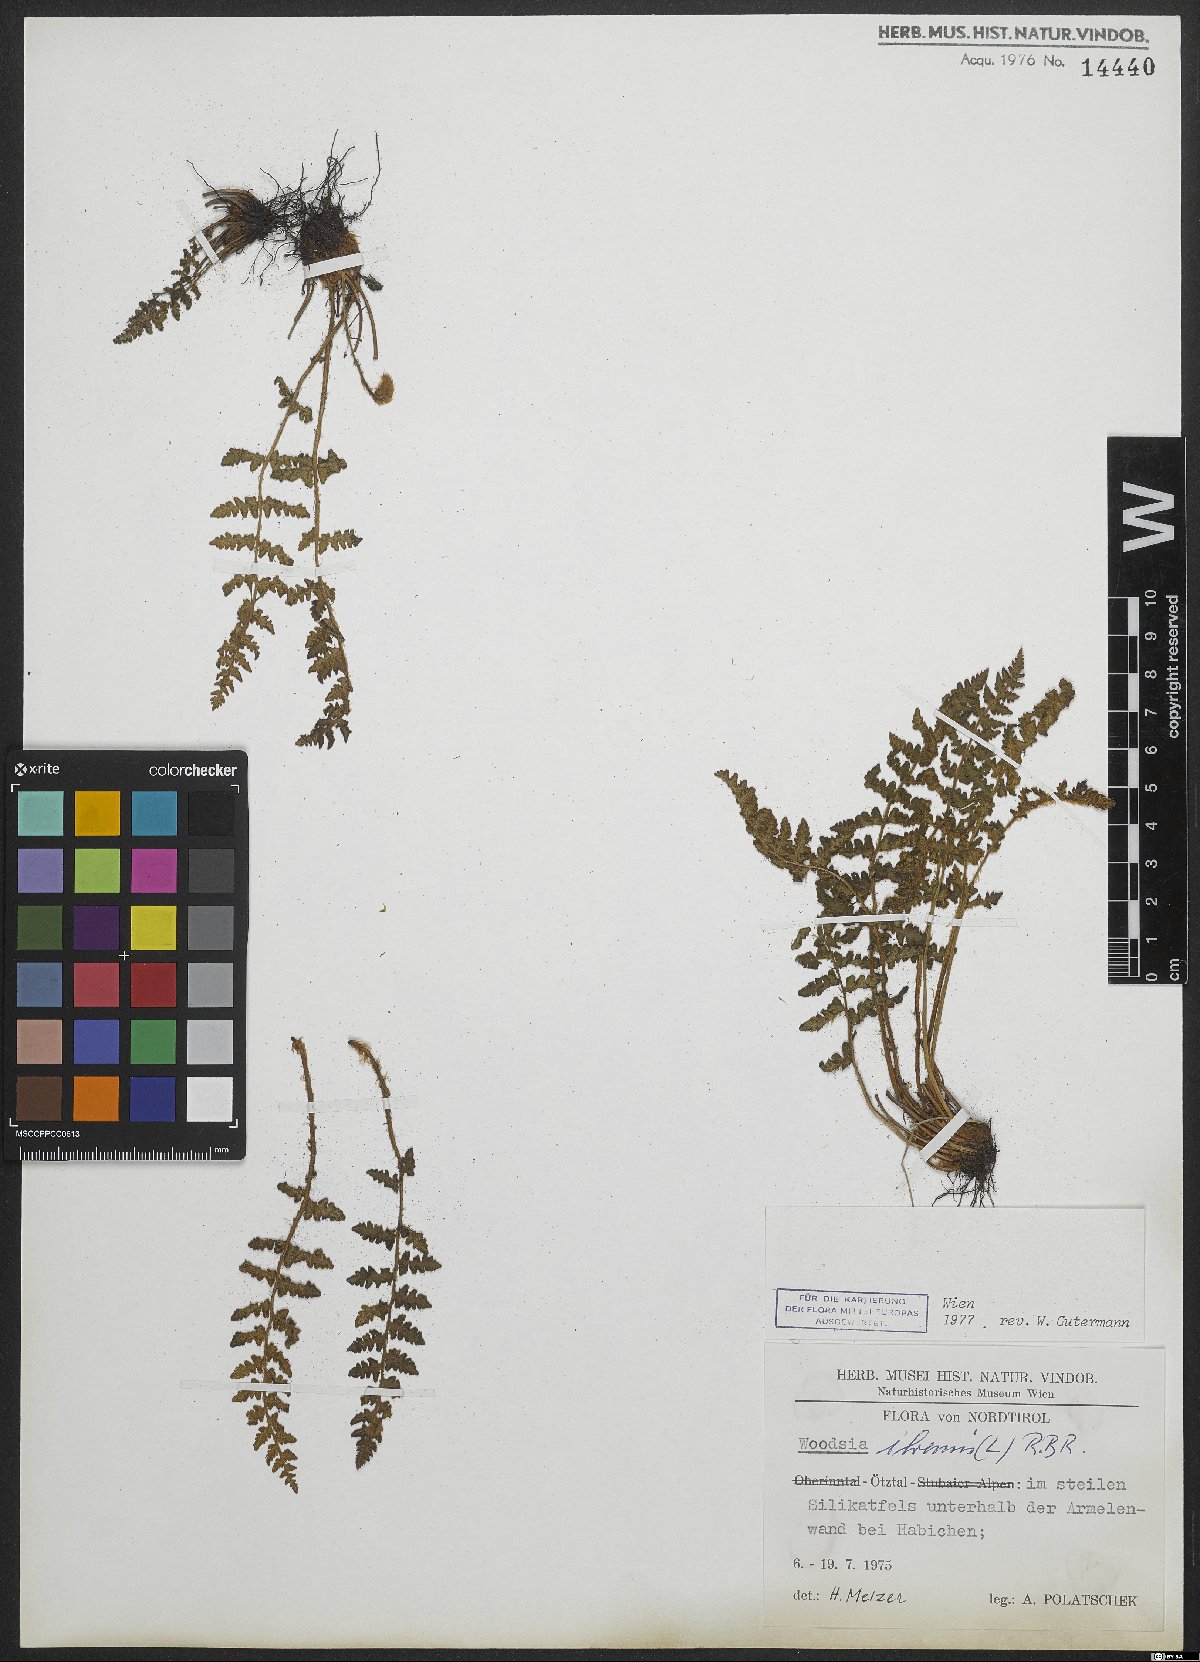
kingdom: Plantae
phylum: Tracheophyta
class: Polypodiopsida
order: Polypodiales
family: Woodsiaceae
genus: Woodsia
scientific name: Woodsia ilvensis
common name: Fragrant woodsia
